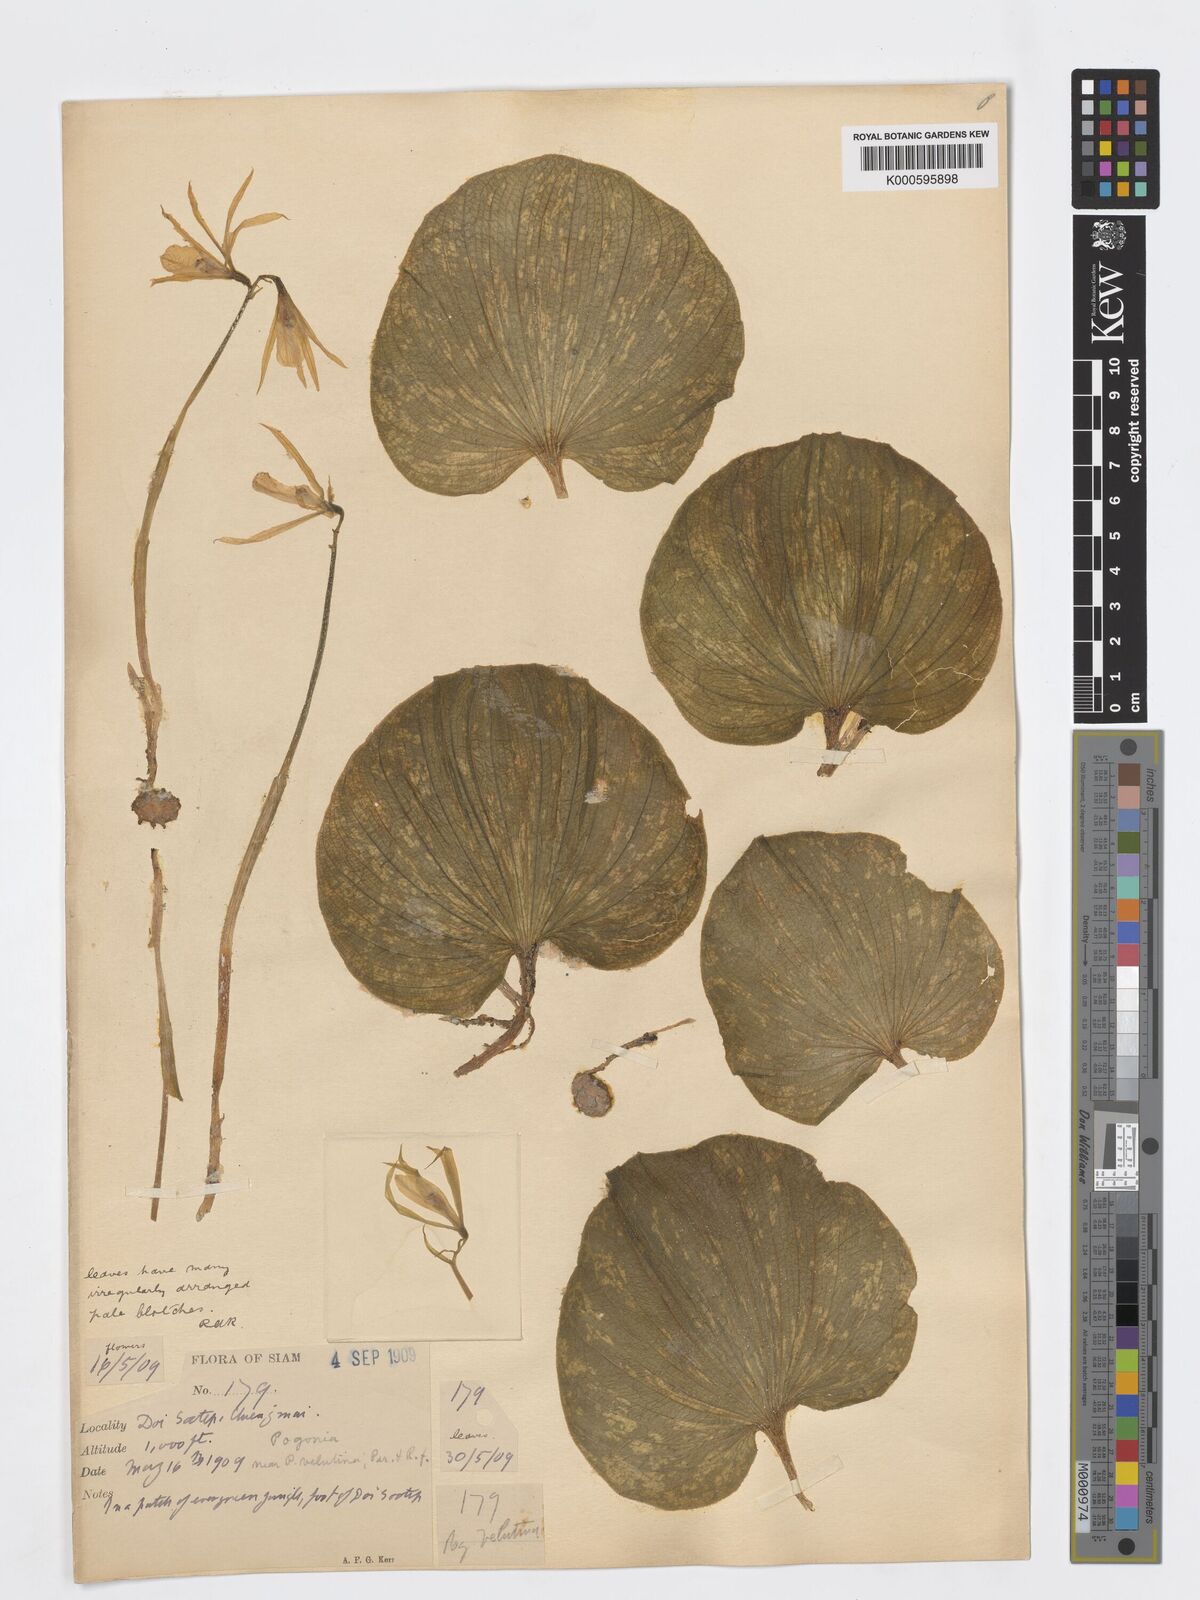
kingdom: Plantae
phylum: Tracheophyta
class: Liliopsida
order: Asparagales
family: Orchidaceae
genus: Nervilia
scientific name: Nervilia plicata
